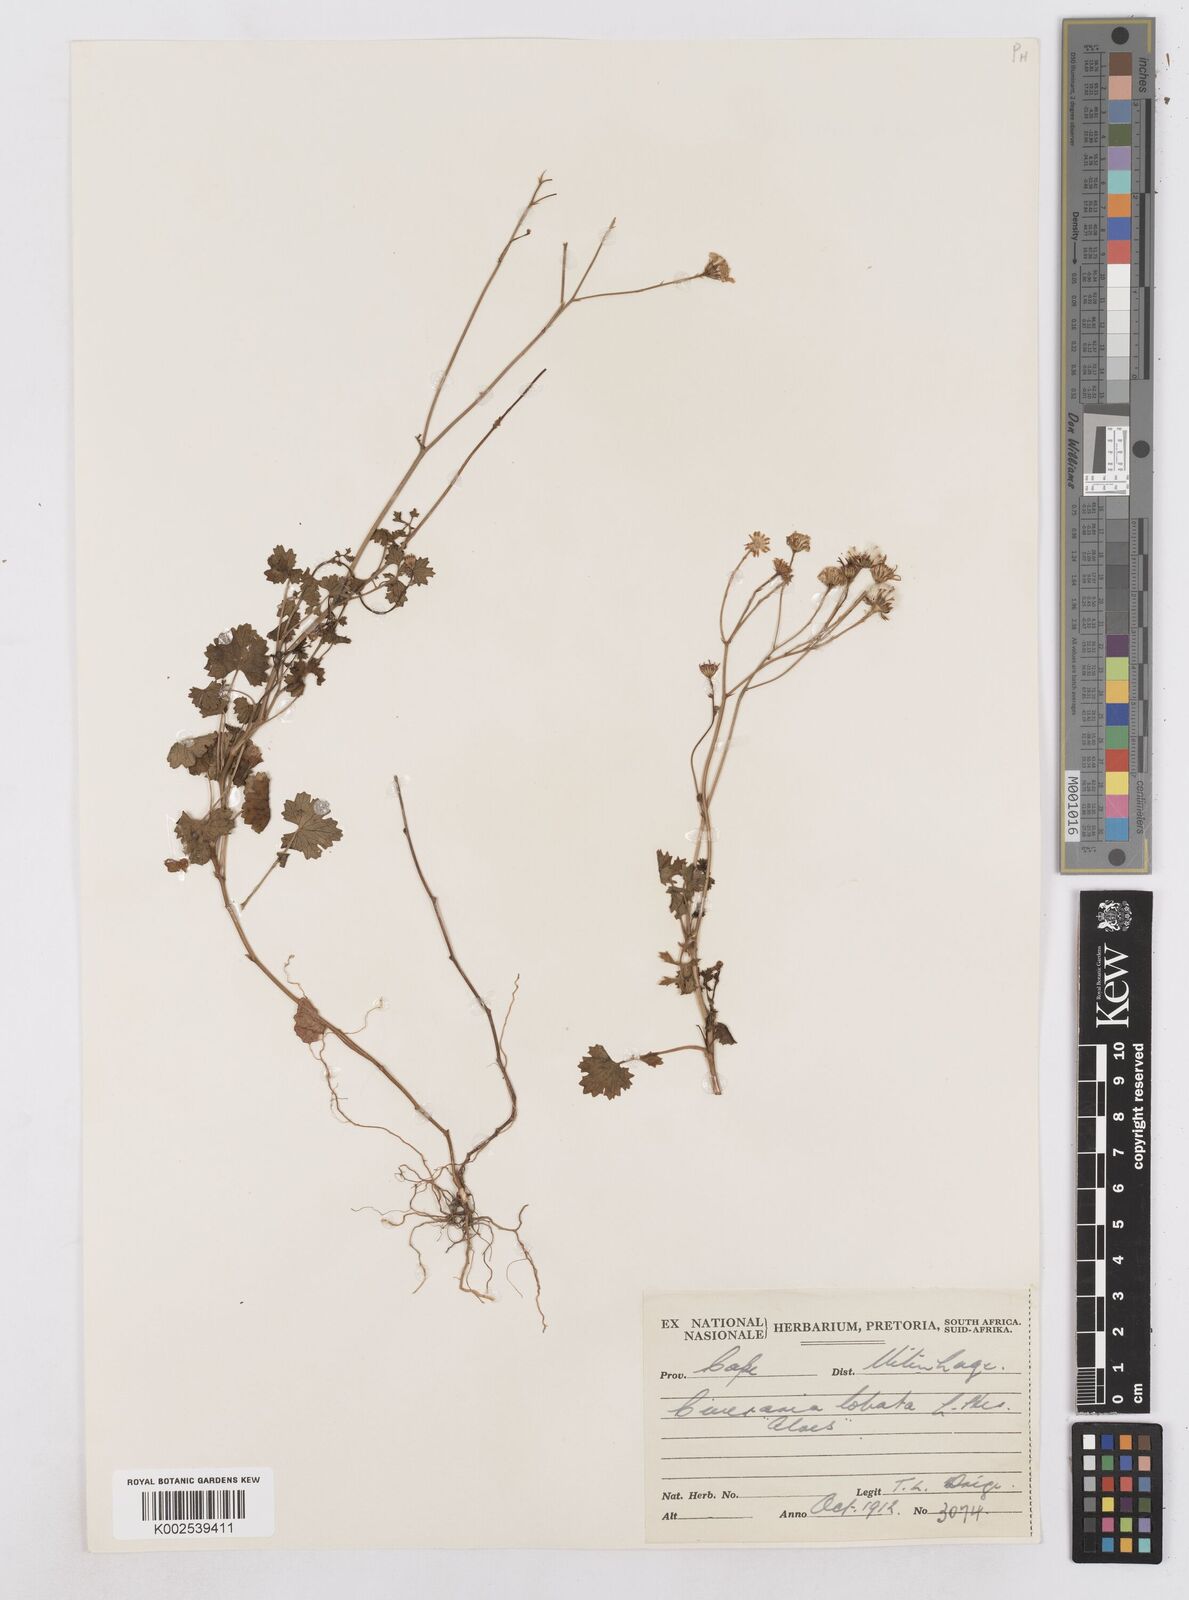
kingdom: Plantae
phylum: Tracheophyta
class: Magnoliopsida
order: Asterales
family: Asteraceae
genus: Cineraria
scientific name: Cineraria
